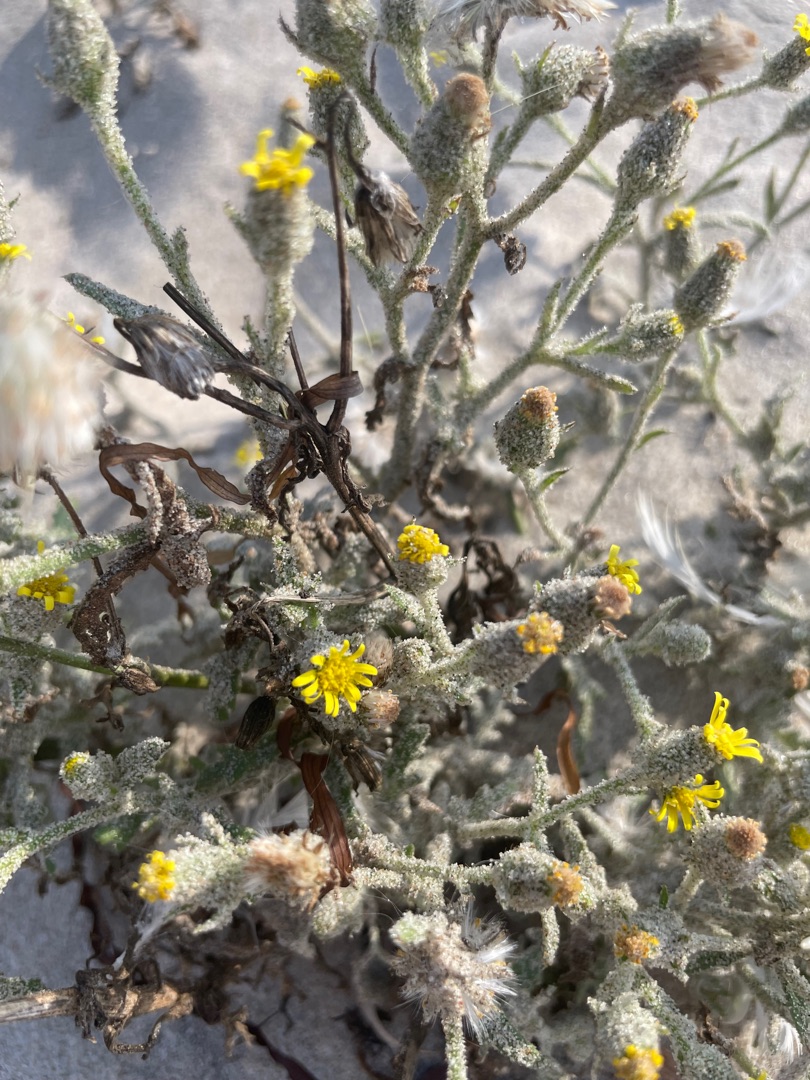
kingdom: Plantae
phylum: Tracheophyta
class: Magnoliopsida
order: Asterales
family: Asteraceae
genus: Senecio
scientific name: Senecio viscosus
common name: Klæbrig brandbæger
